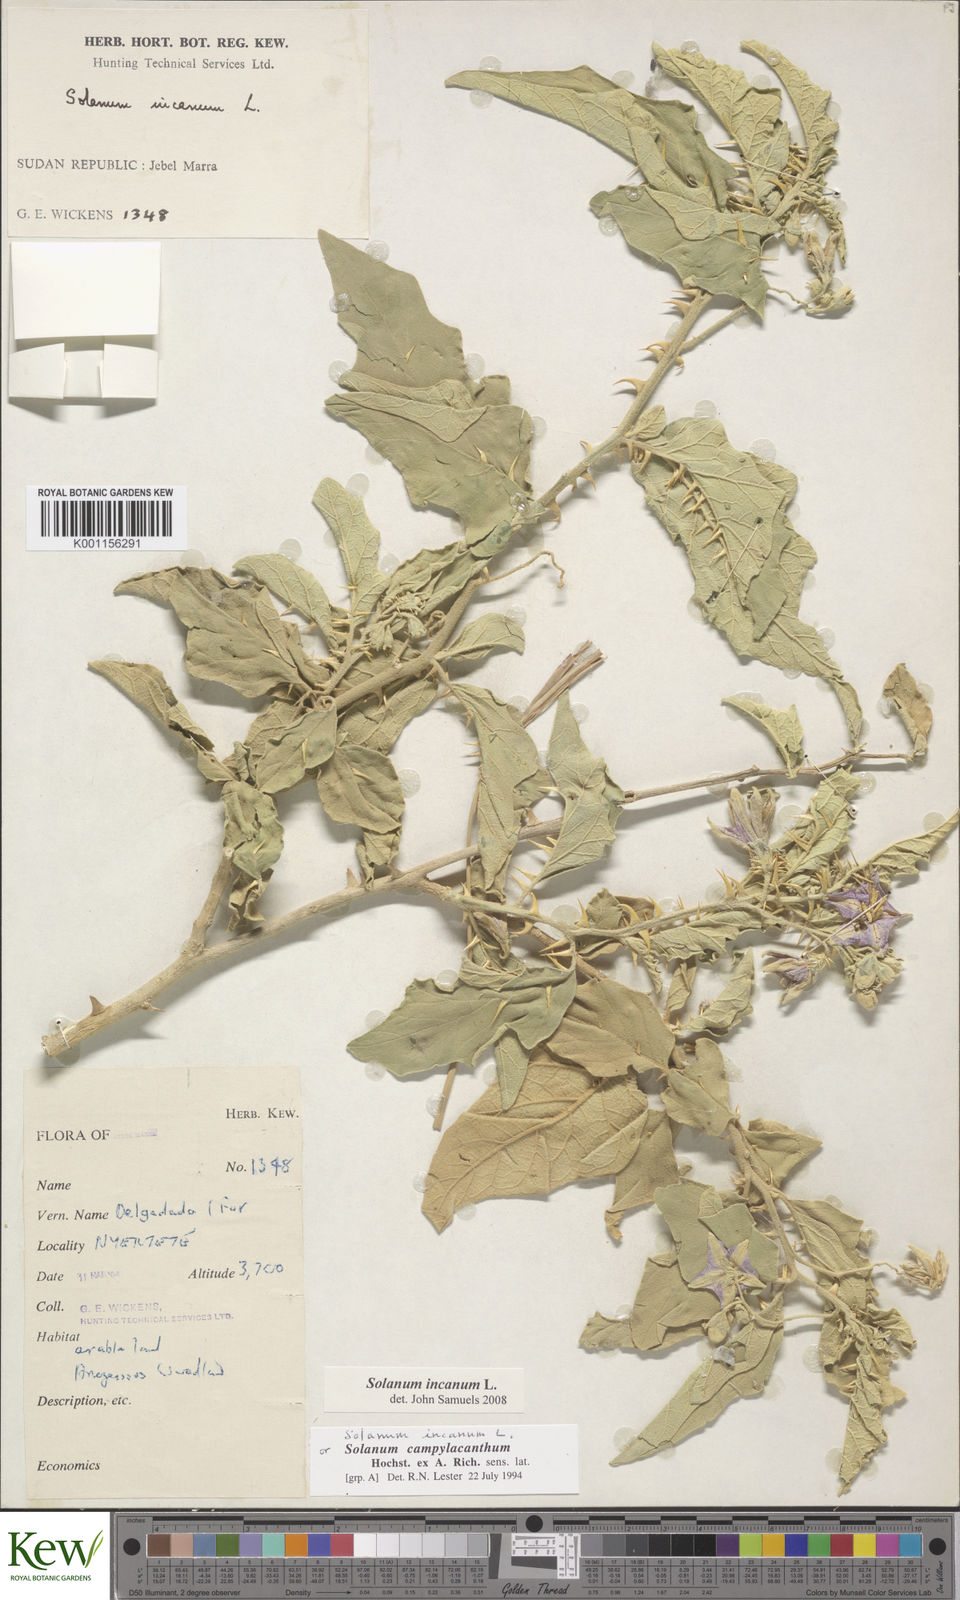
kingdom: Plantae
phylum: Tracheophyta
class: Magnoliopsida
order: Solanales
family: Solanaceae
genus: Solanum
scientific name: Solanum incanum
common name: Bitter apple
